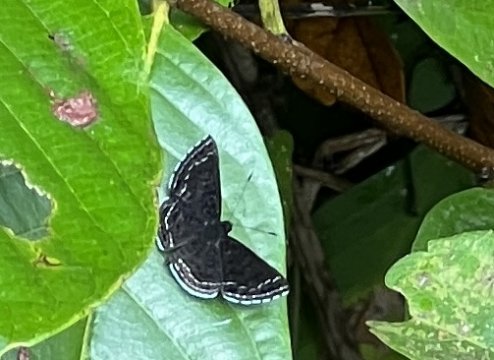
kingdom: Animalia
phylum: Arthropoda
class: Insecta
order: Lepidoptera
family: Lycaenidae
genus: Emesis
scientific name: Emesis irina
